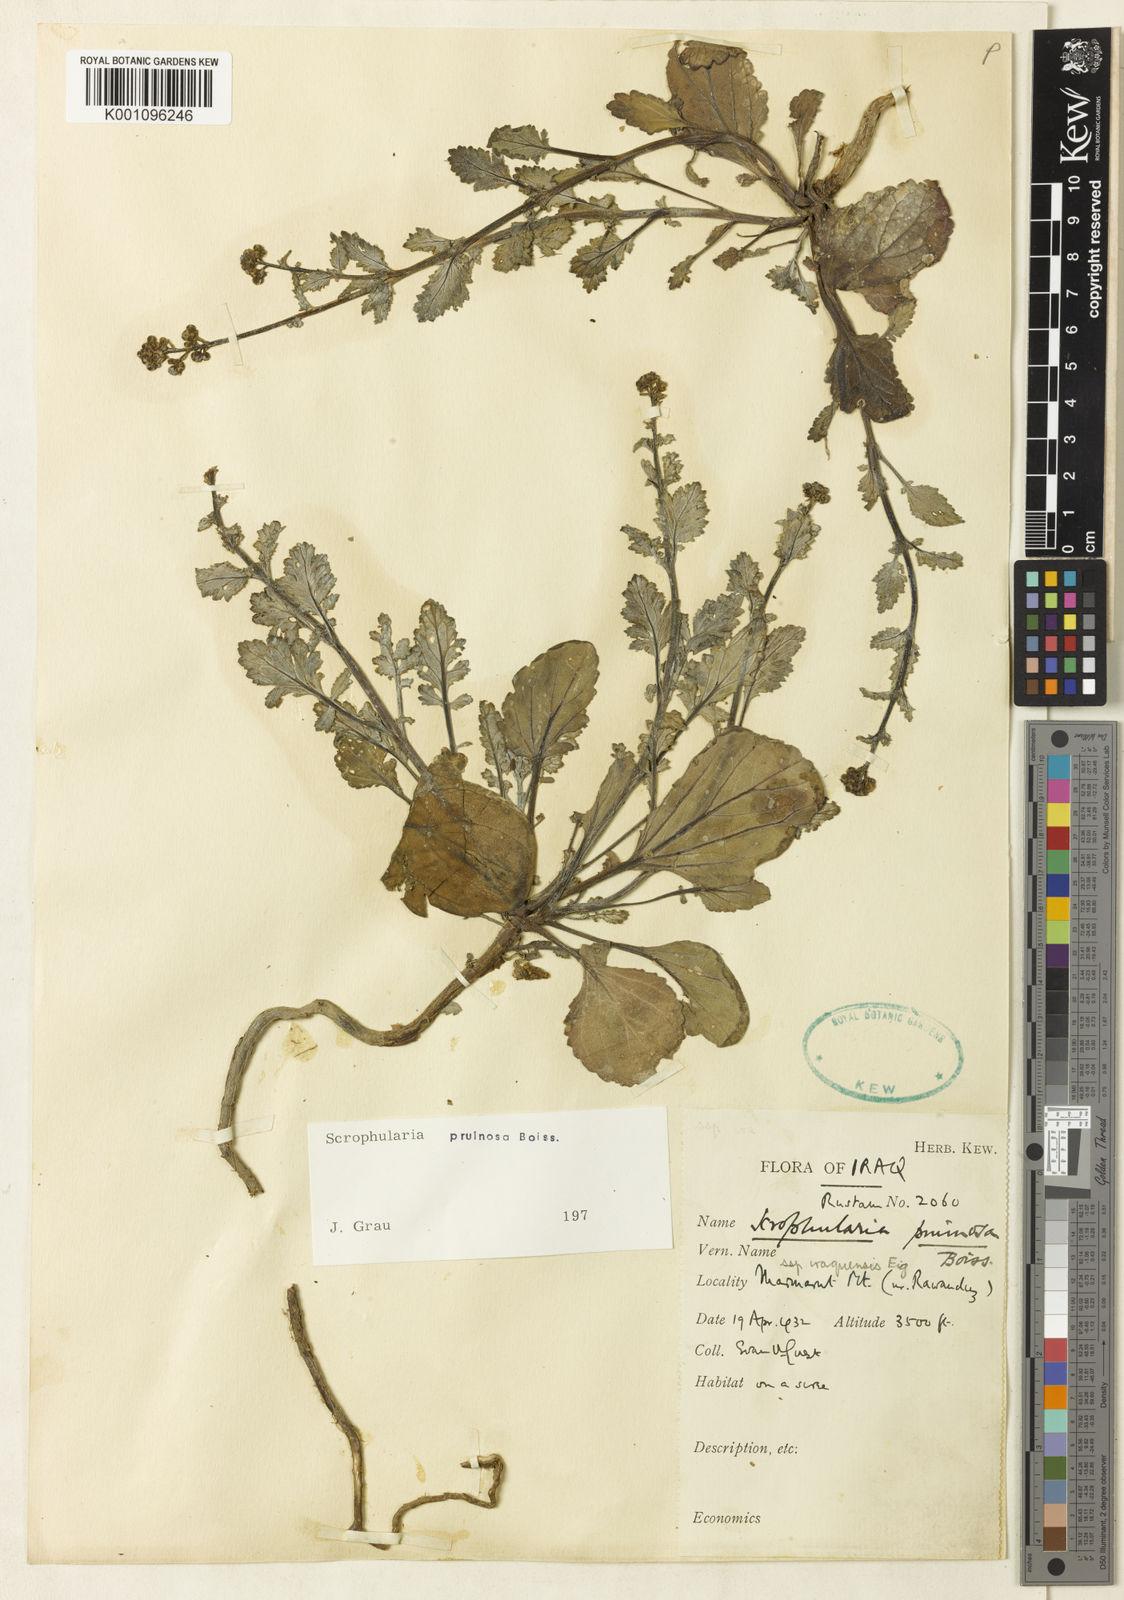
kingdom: Plantae
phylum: Tracheophyta
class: Magnoliopsida
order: Lamiales
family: Scrophulariaceae
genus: Scrophularia
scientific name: Scrophularia pruinosa
